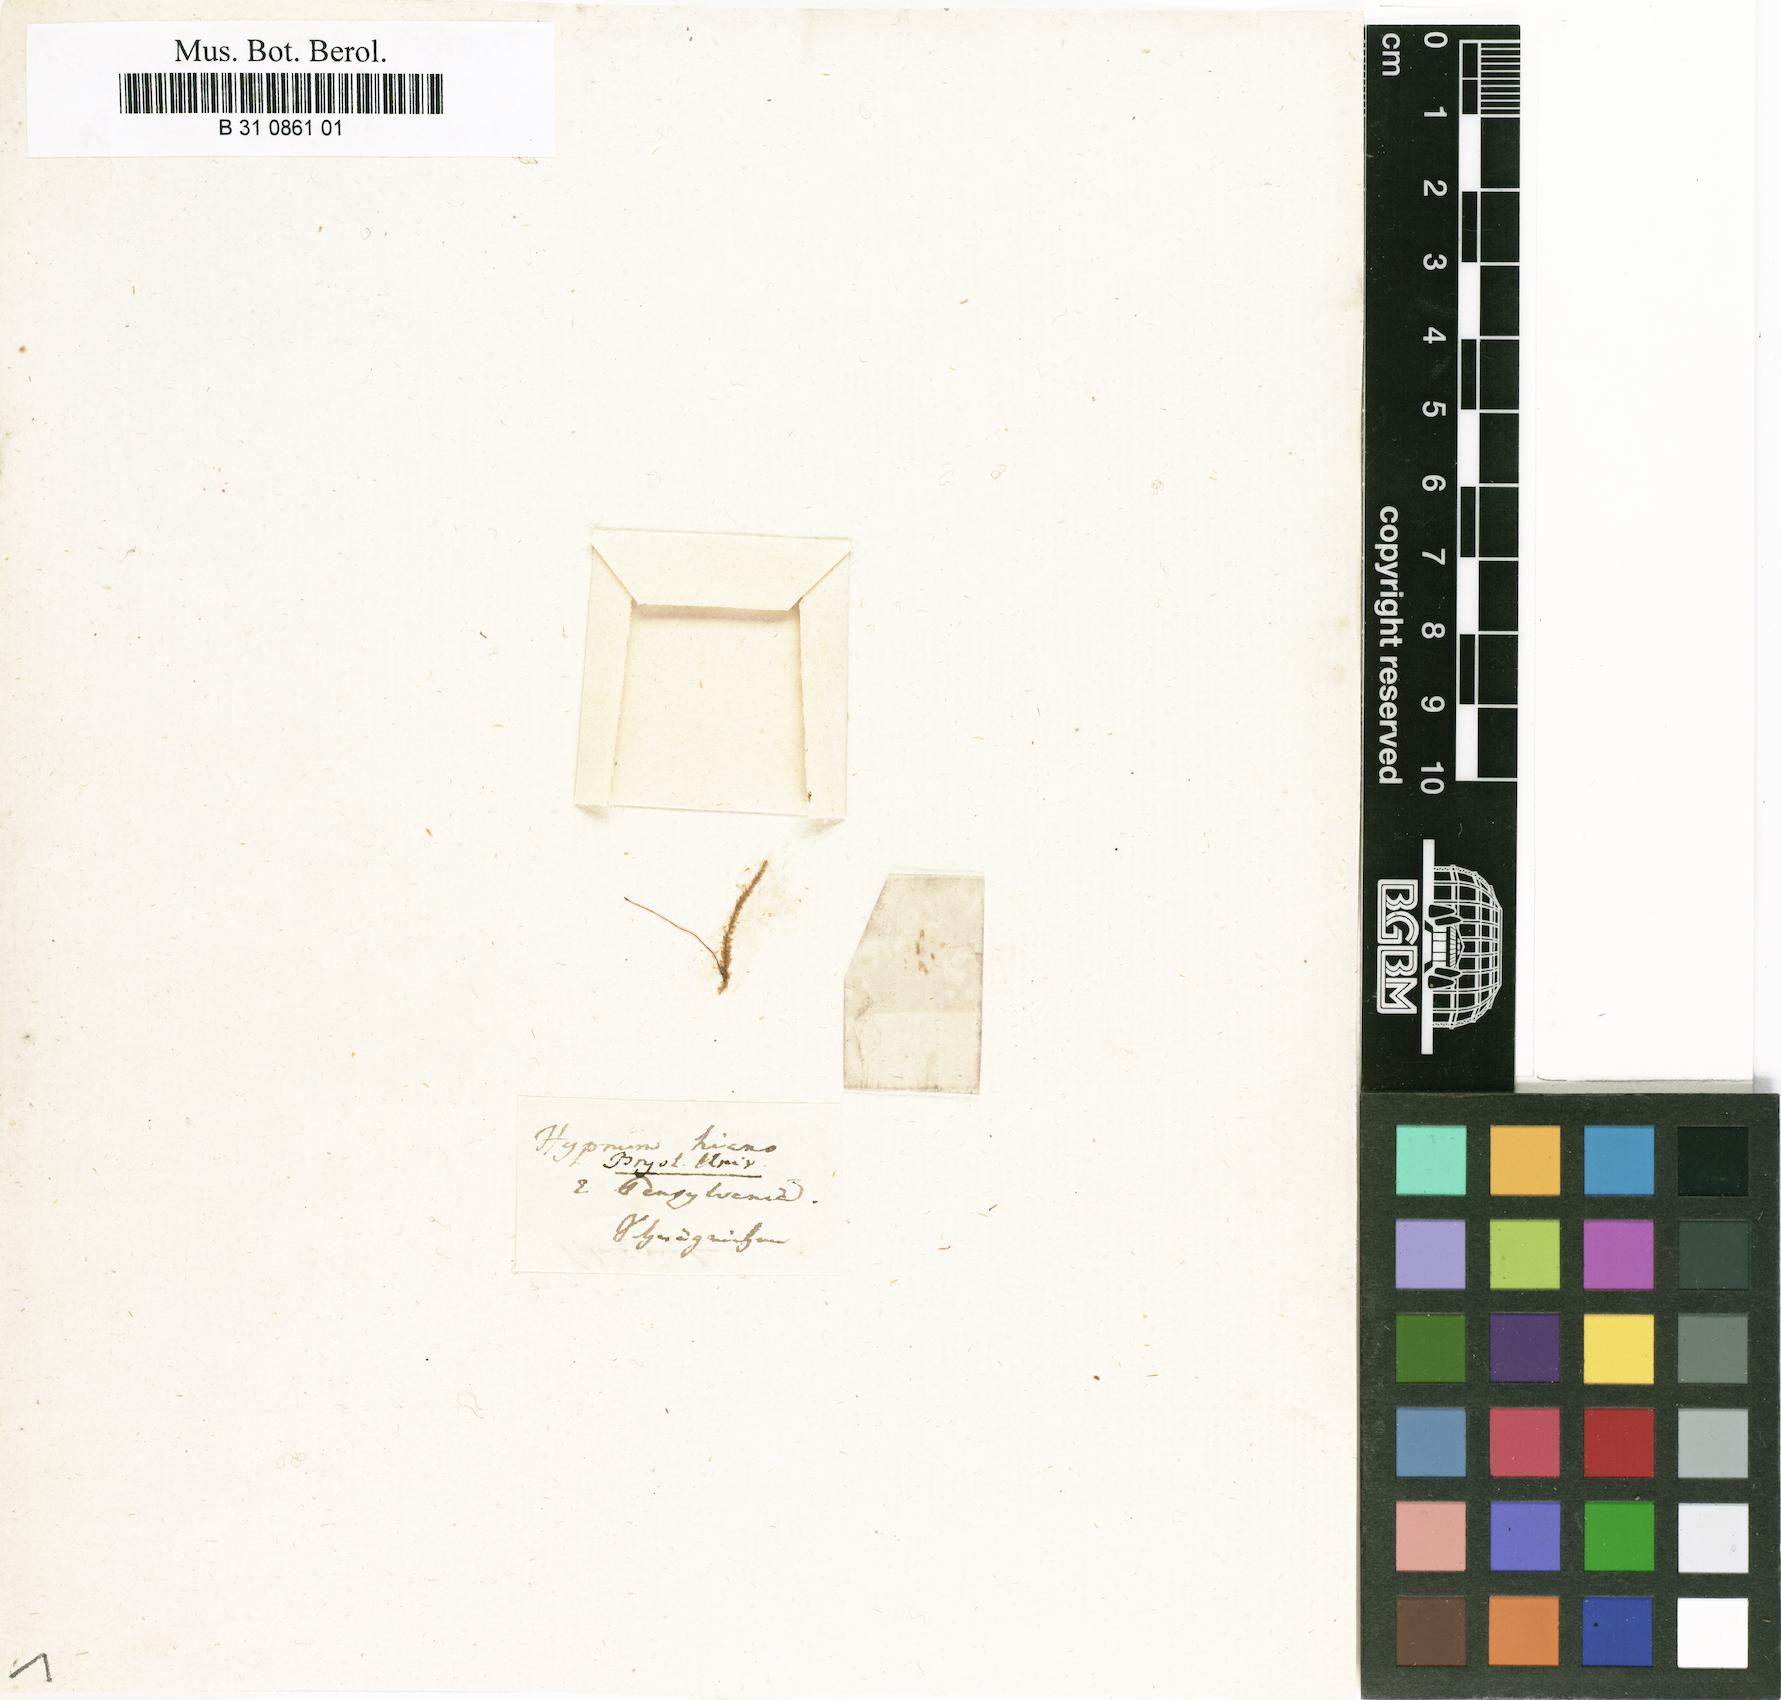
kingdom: Plantae
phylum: Bryophyta
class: Bryopsida
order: Hypnales
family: Brachytheciaceae
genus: Oxyrrhynchium
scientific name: Oxyrrhynchium hians
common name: Spreading beaked moss
